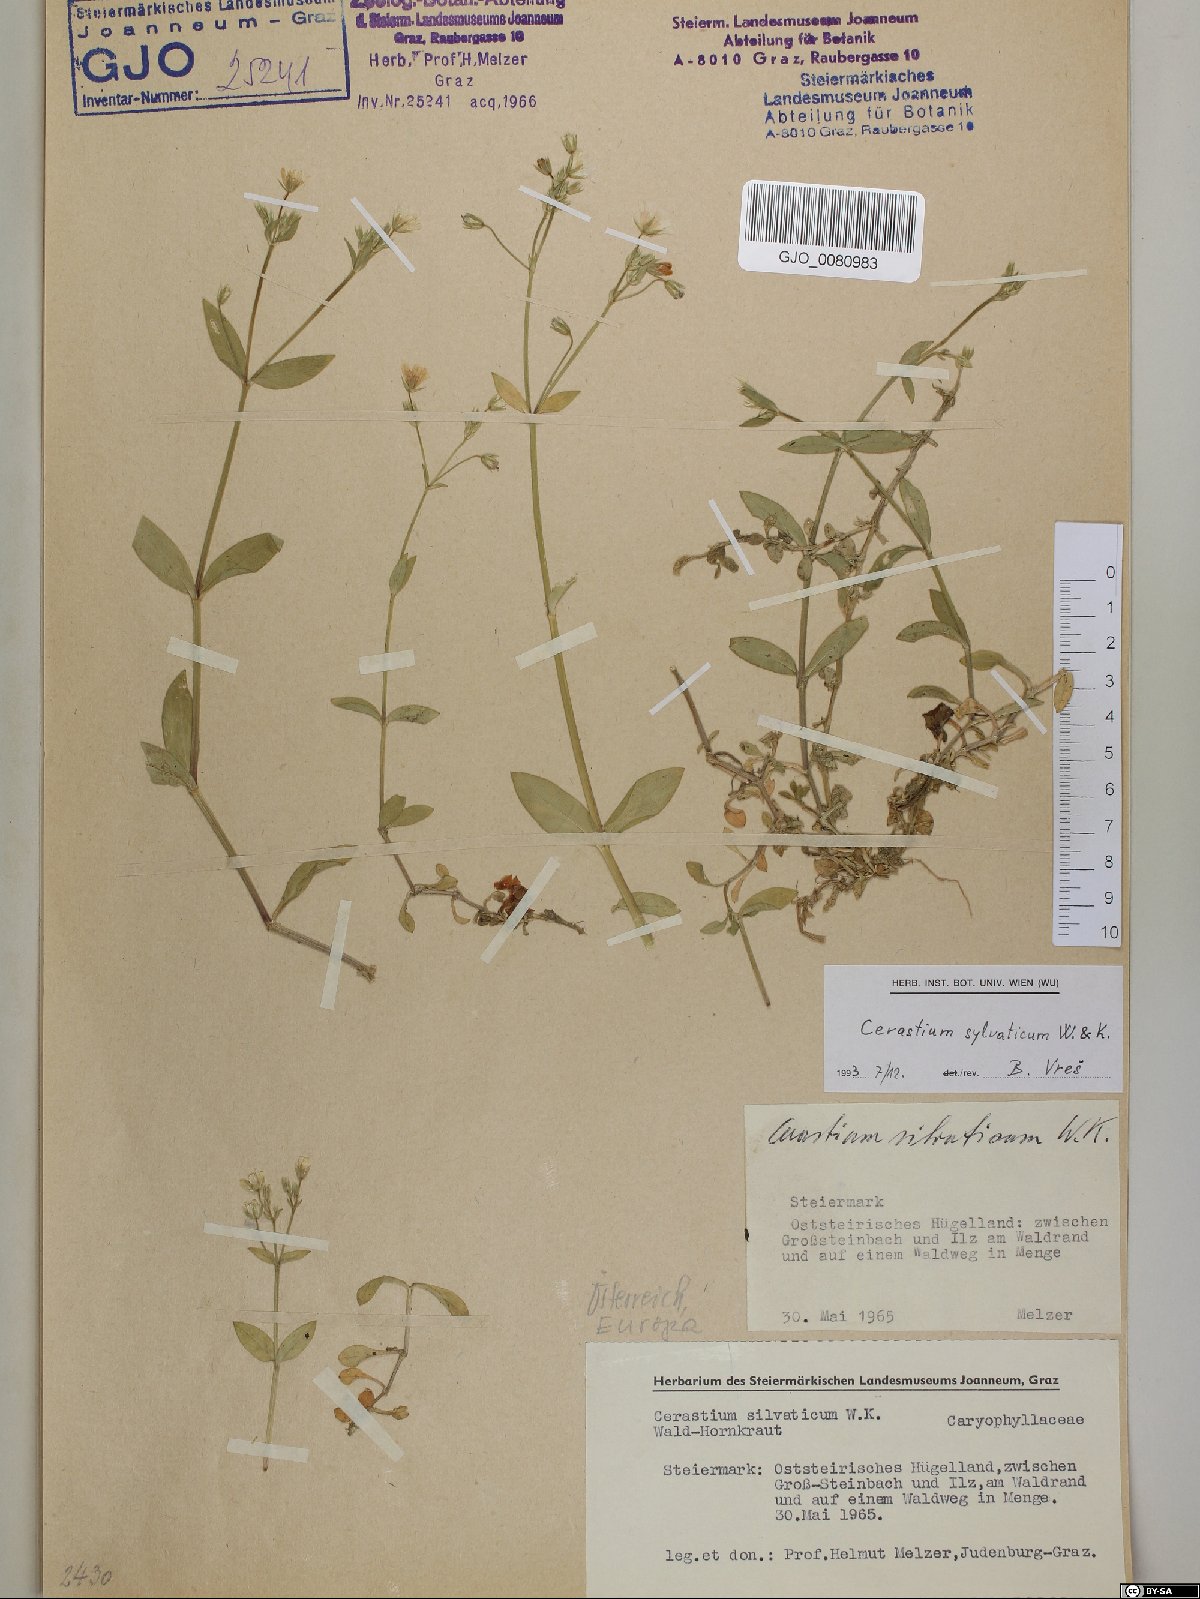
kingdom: Plantae
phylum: Tracheophyta
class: Magnoliopsida
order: Caryophyllales
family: Caryophyllaceae
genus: Cerastium
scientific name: Cerastium sylvaticum
